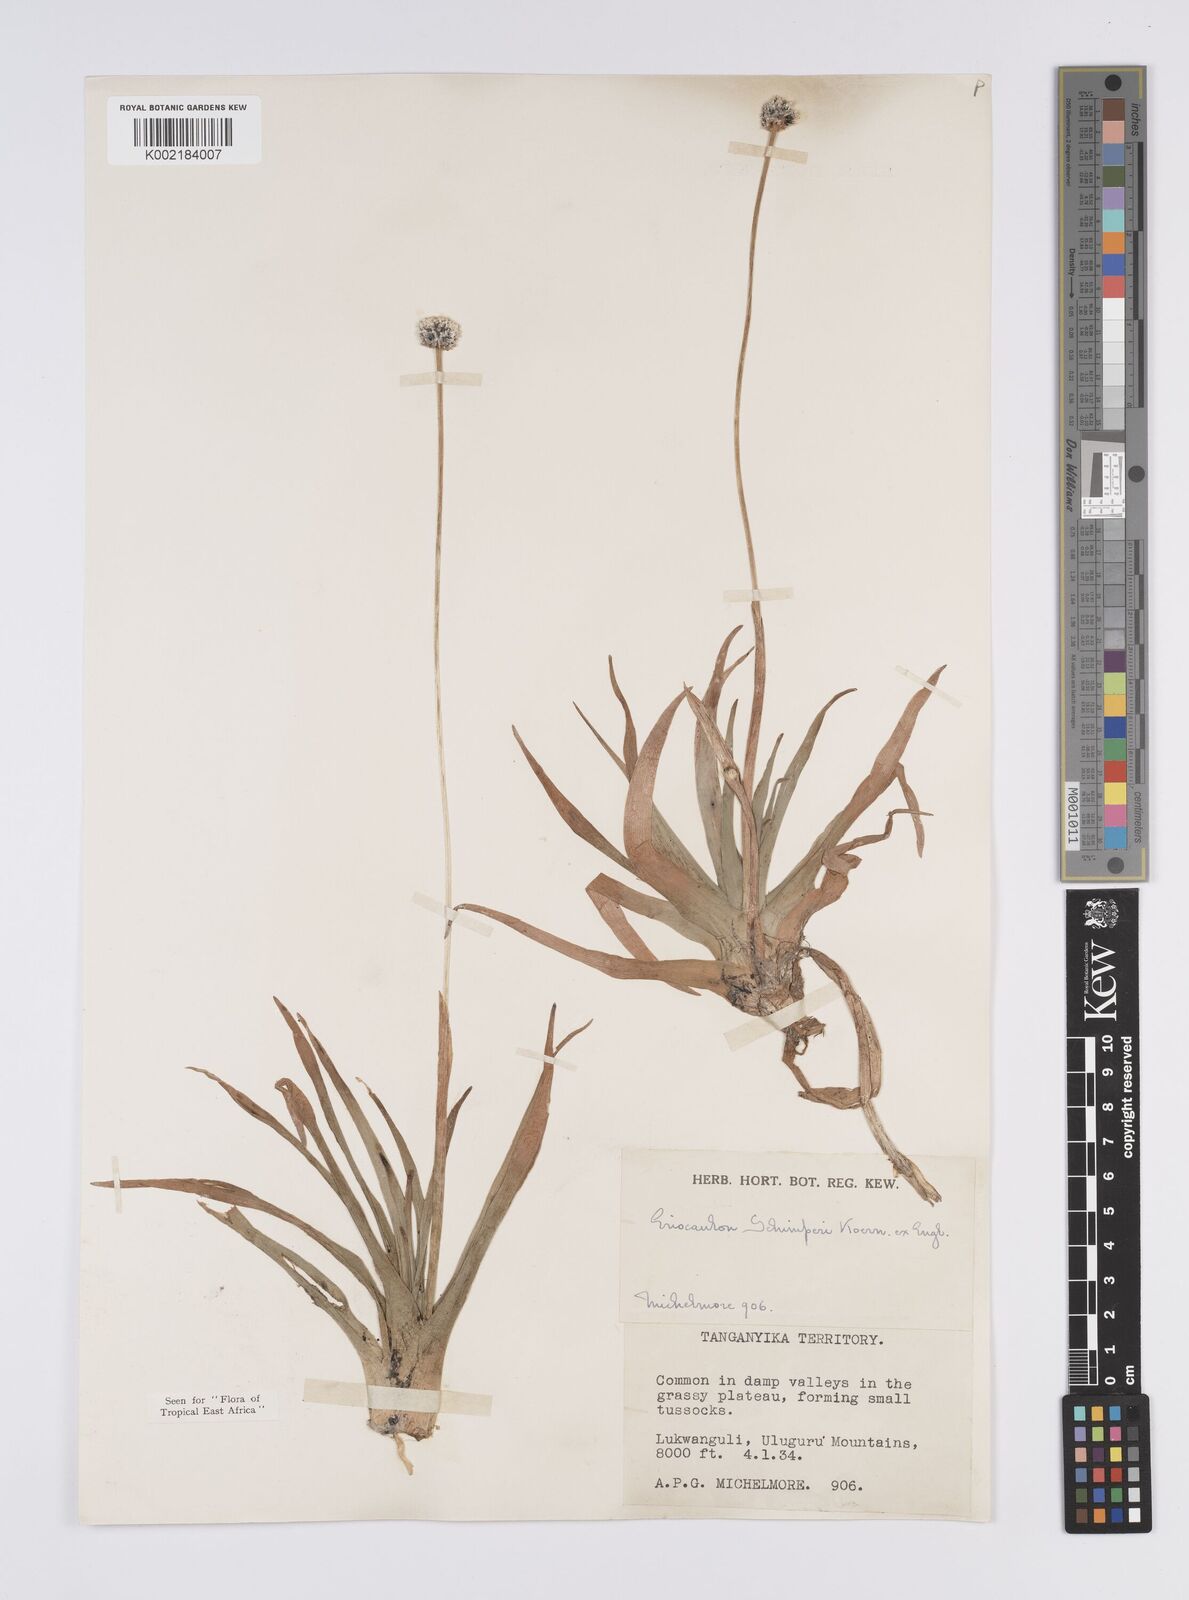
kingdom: Plantae
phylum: Tracheophyta
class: Liliopsida
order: Poales
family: Eriocaulaceae
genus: Eriocaulon
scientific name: Eriocaulon mesanthemoides
